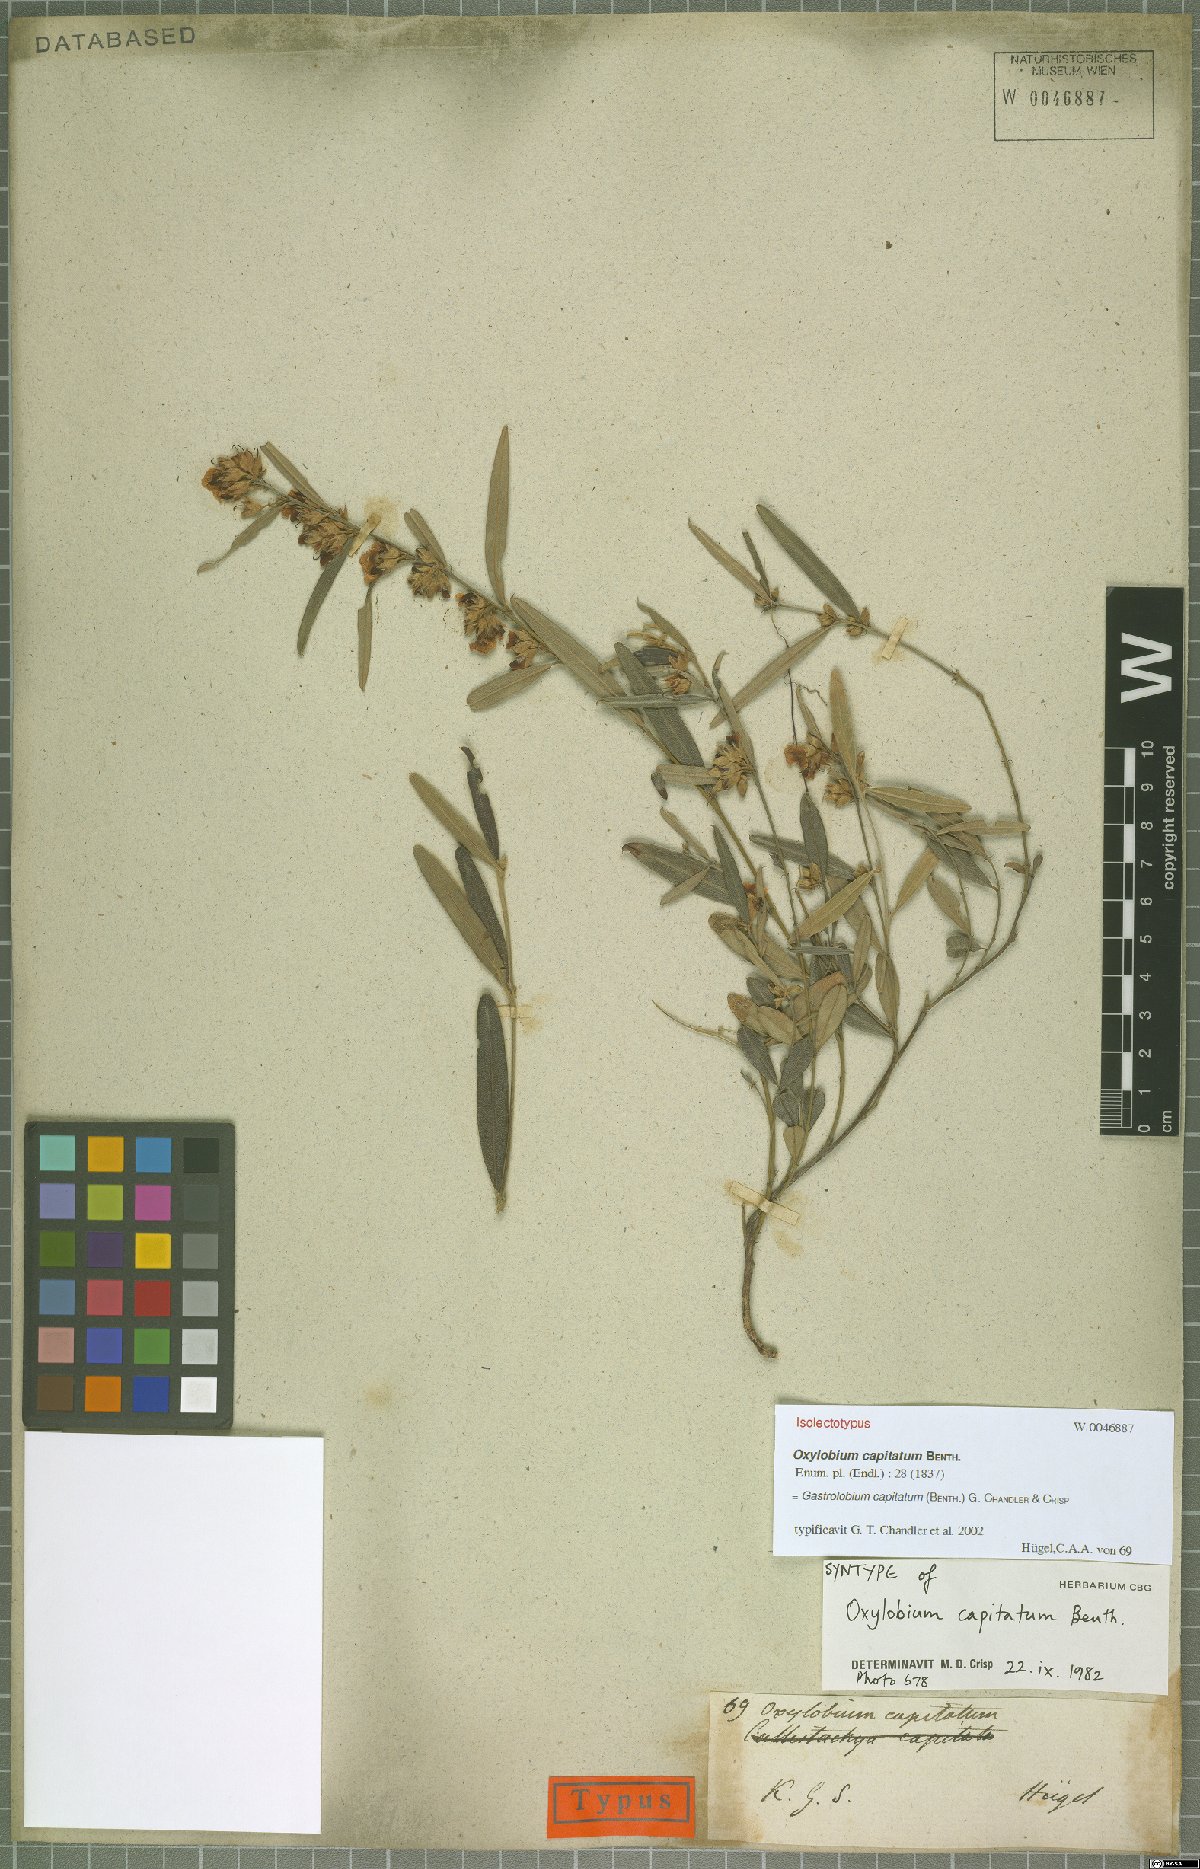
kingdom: Plantae
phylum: Tracheophyta
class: Magnoliopsida
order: Fabales
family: Fabaceae
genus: Gastrolobium
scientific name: Gastrolobium capitatum
